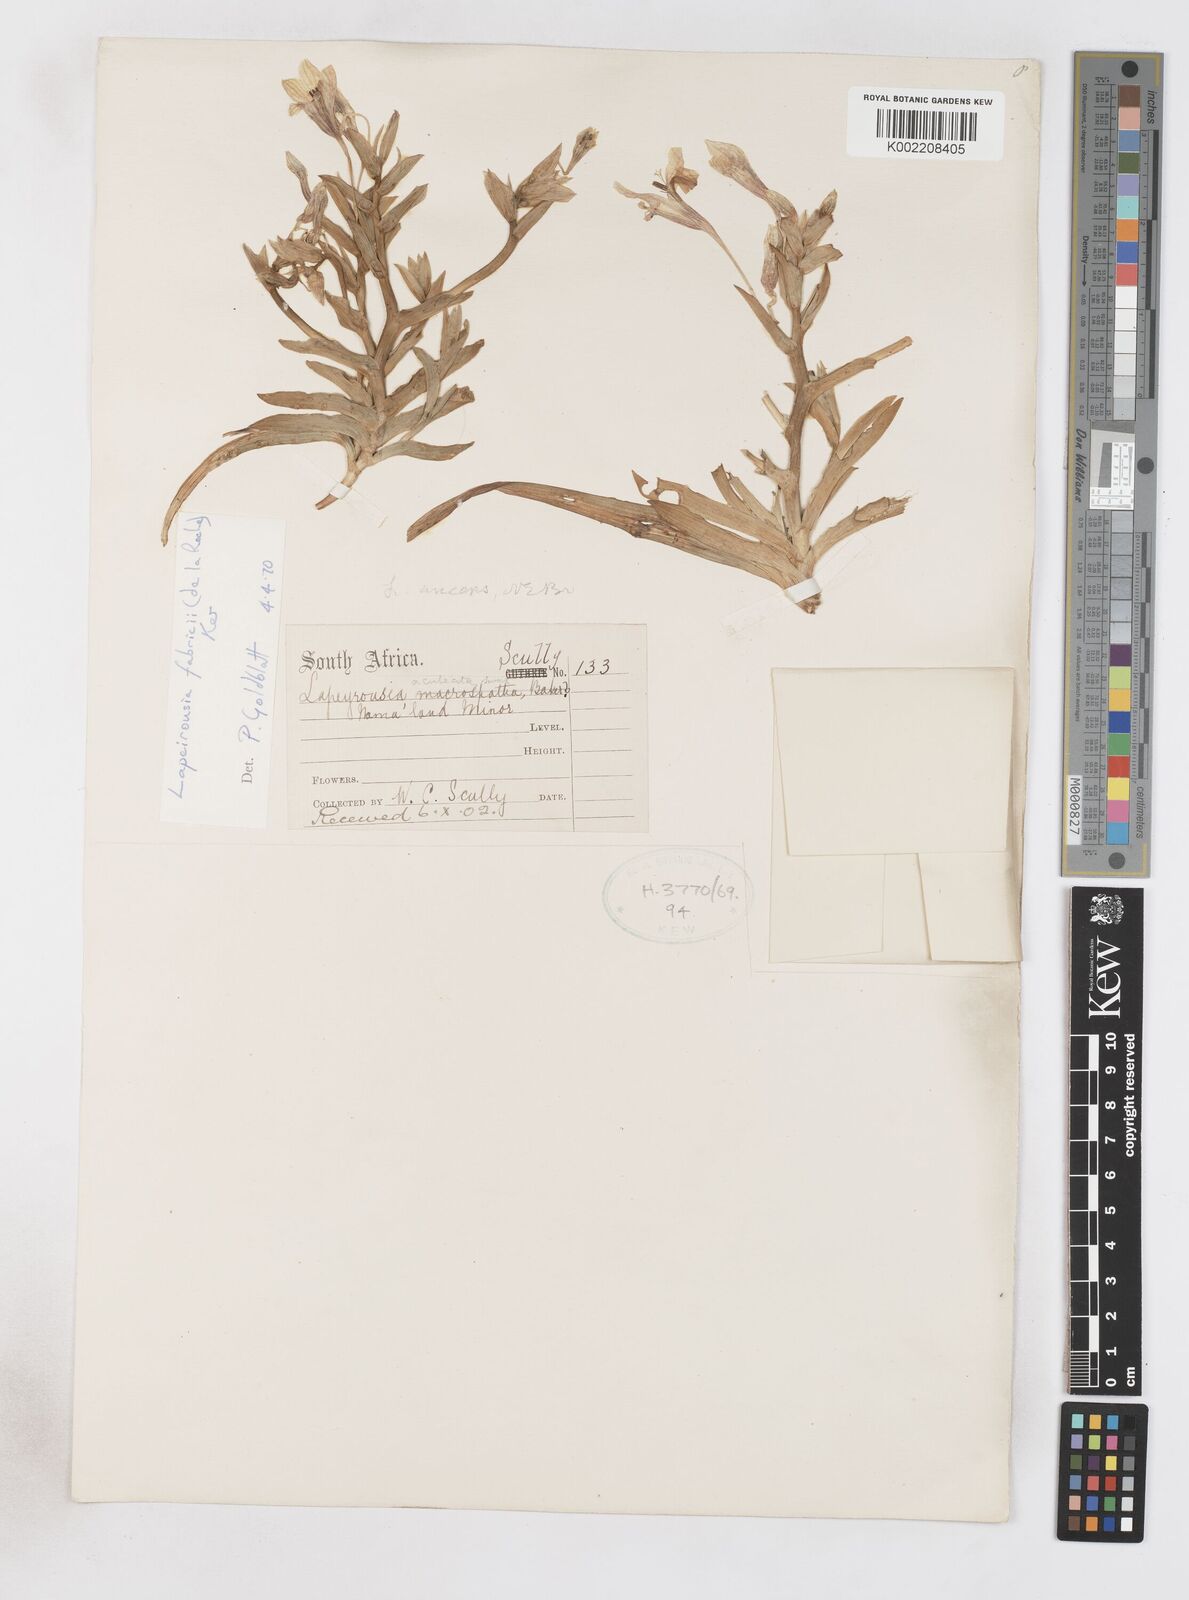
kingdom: Plantae
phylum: Tracheophyta
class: Liliopsida
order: Asparagales
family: Iridaceae
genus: Lapeirousia
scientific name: Lapeirousia fabricii
